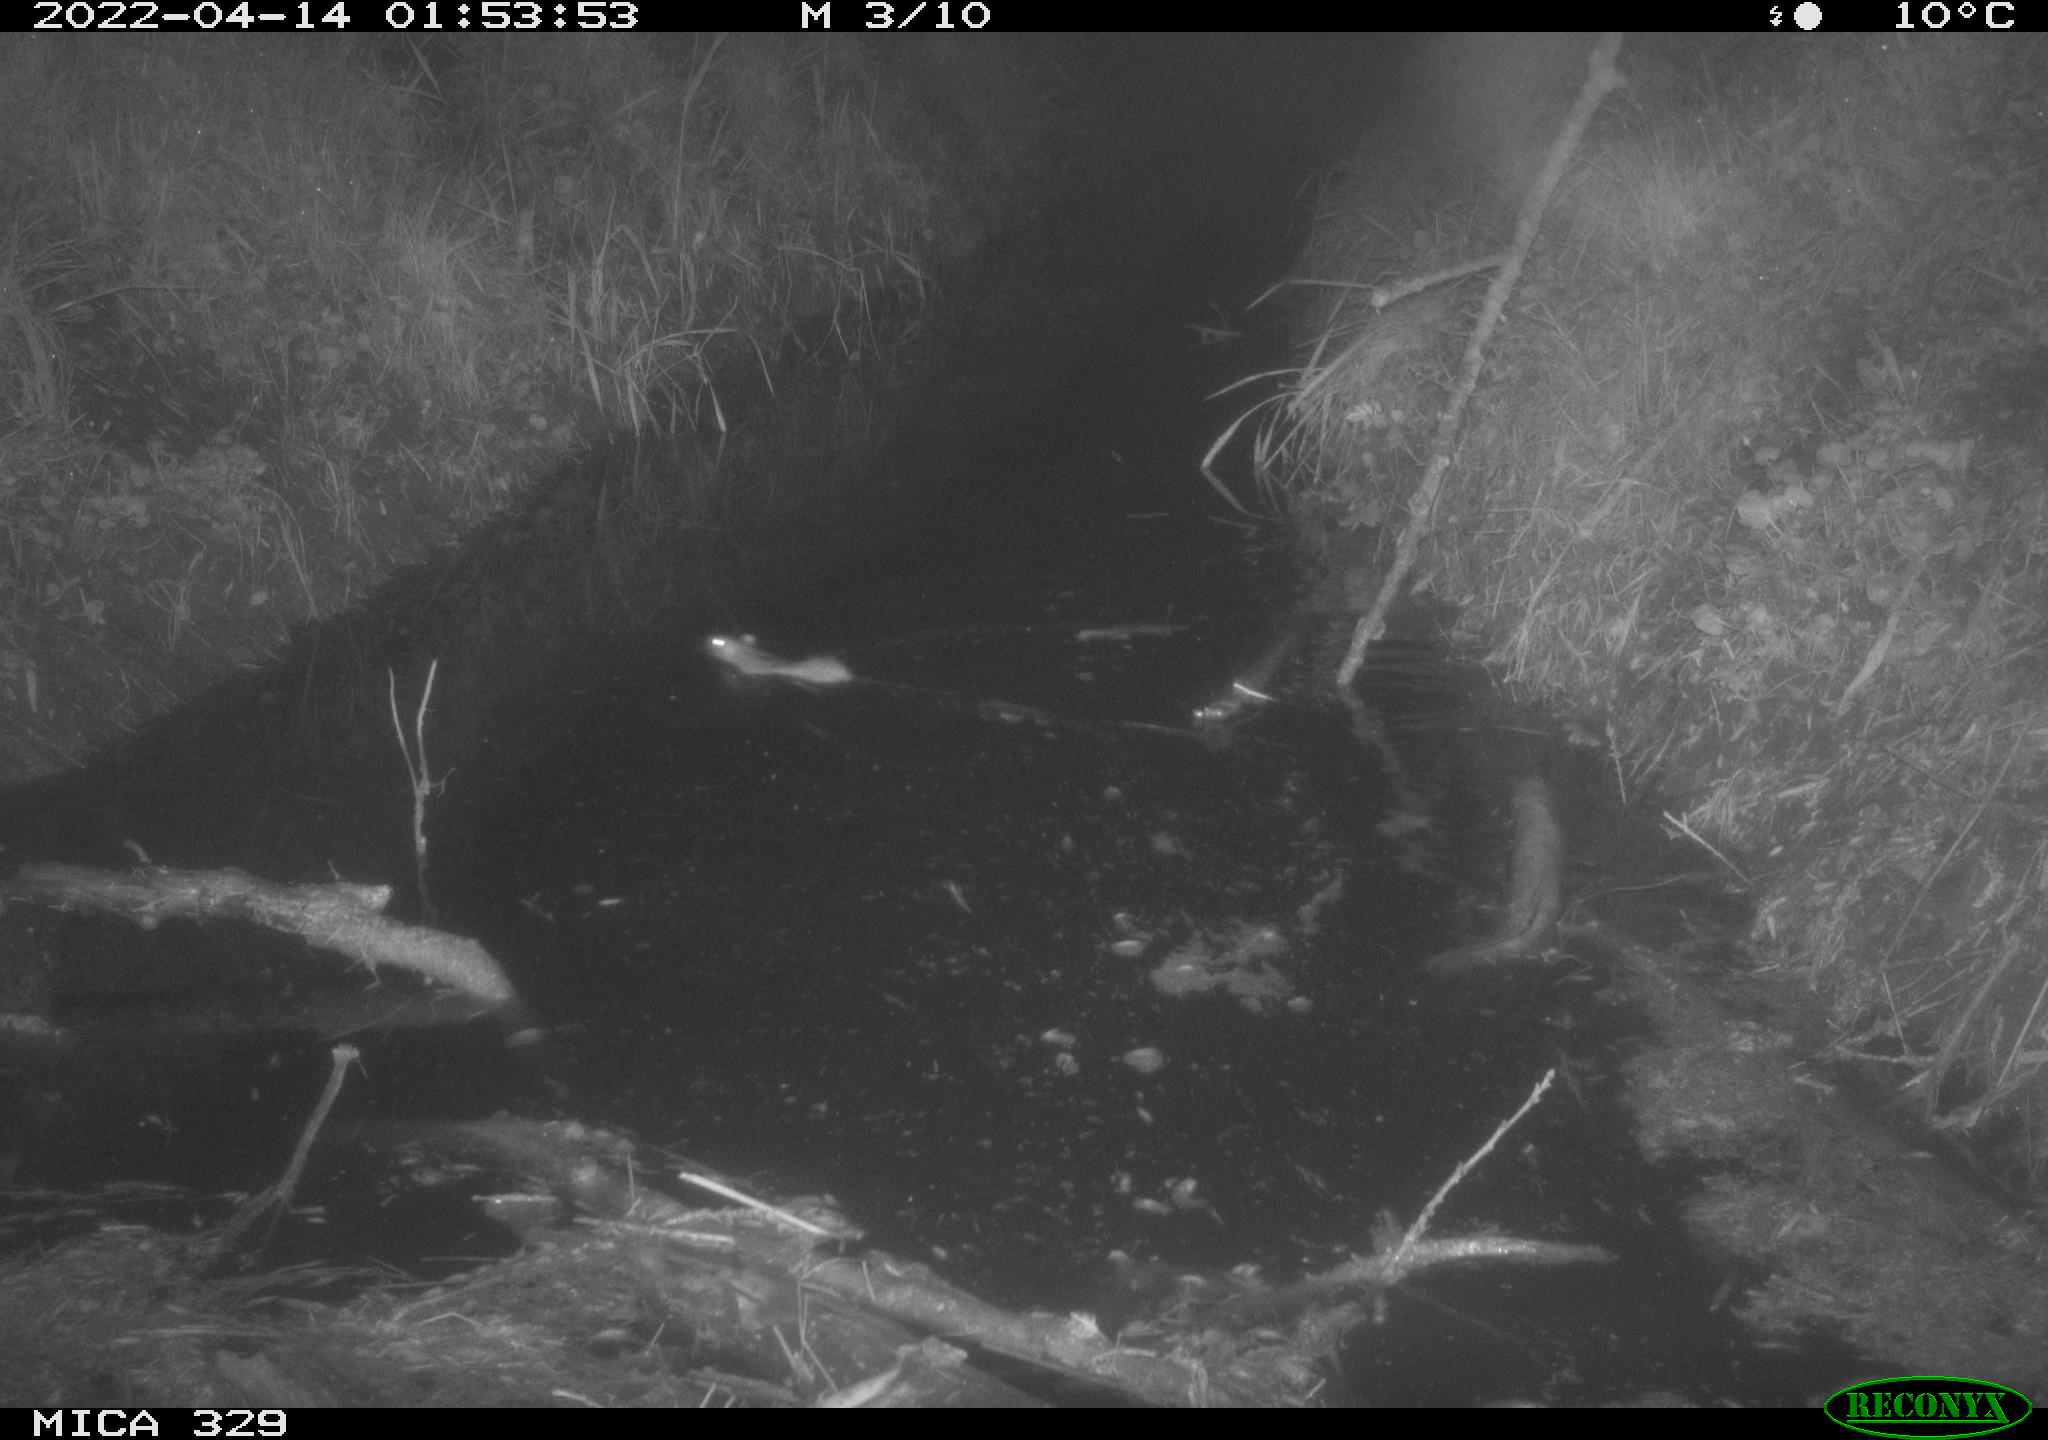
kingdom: Animalia
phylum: Chordata
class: Mammalia
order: Rodentia
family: Muridae
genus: Rattus
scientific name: Rattus norvegicus
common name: Brown rat
